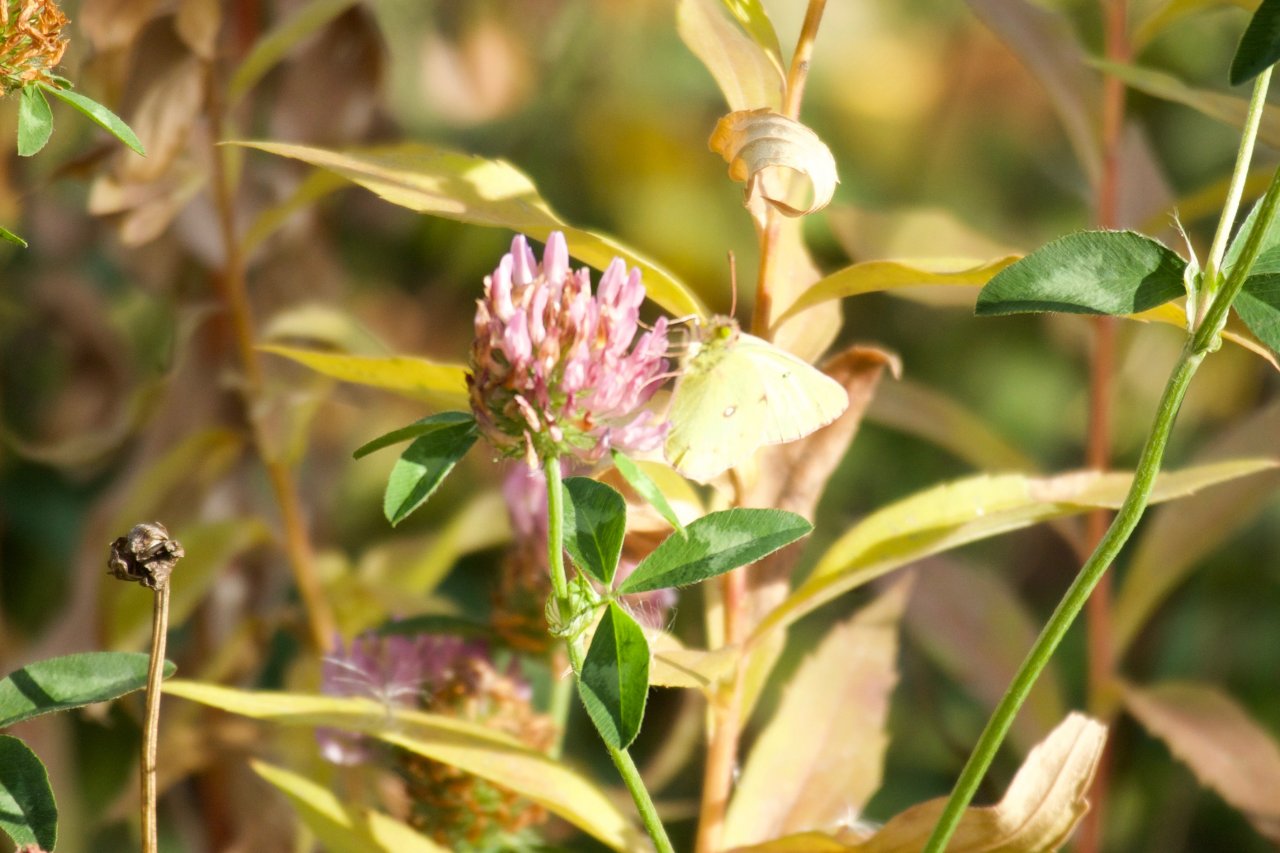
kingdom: Animalia
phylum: Arthropoda
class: Insecta
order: Lepidoptera
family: Pieridae
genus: Colias
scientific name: Colias philodice
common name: Clouded Sulphur
